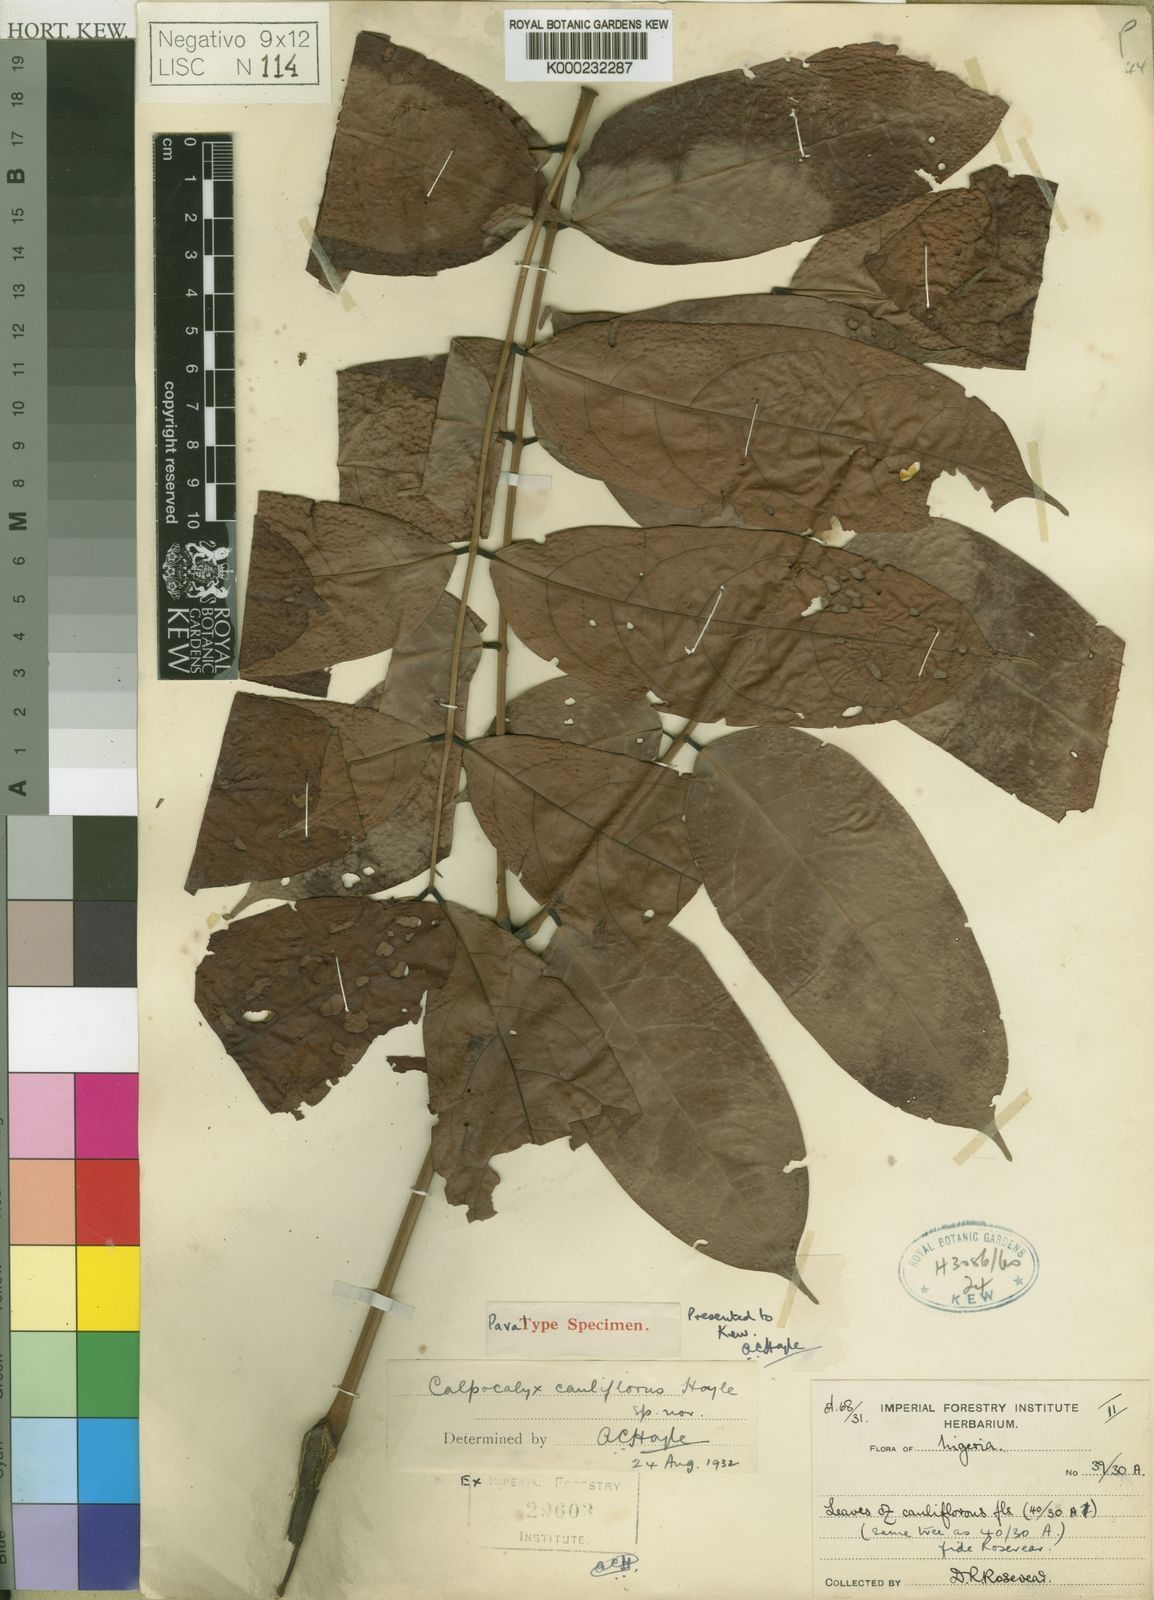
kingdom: Plantae
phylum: Tracheophyta
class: Magnoliopsida
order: Fabales
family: Fabaceae
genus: Calpocalyx
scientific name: Calpocalyx cauliflorus
